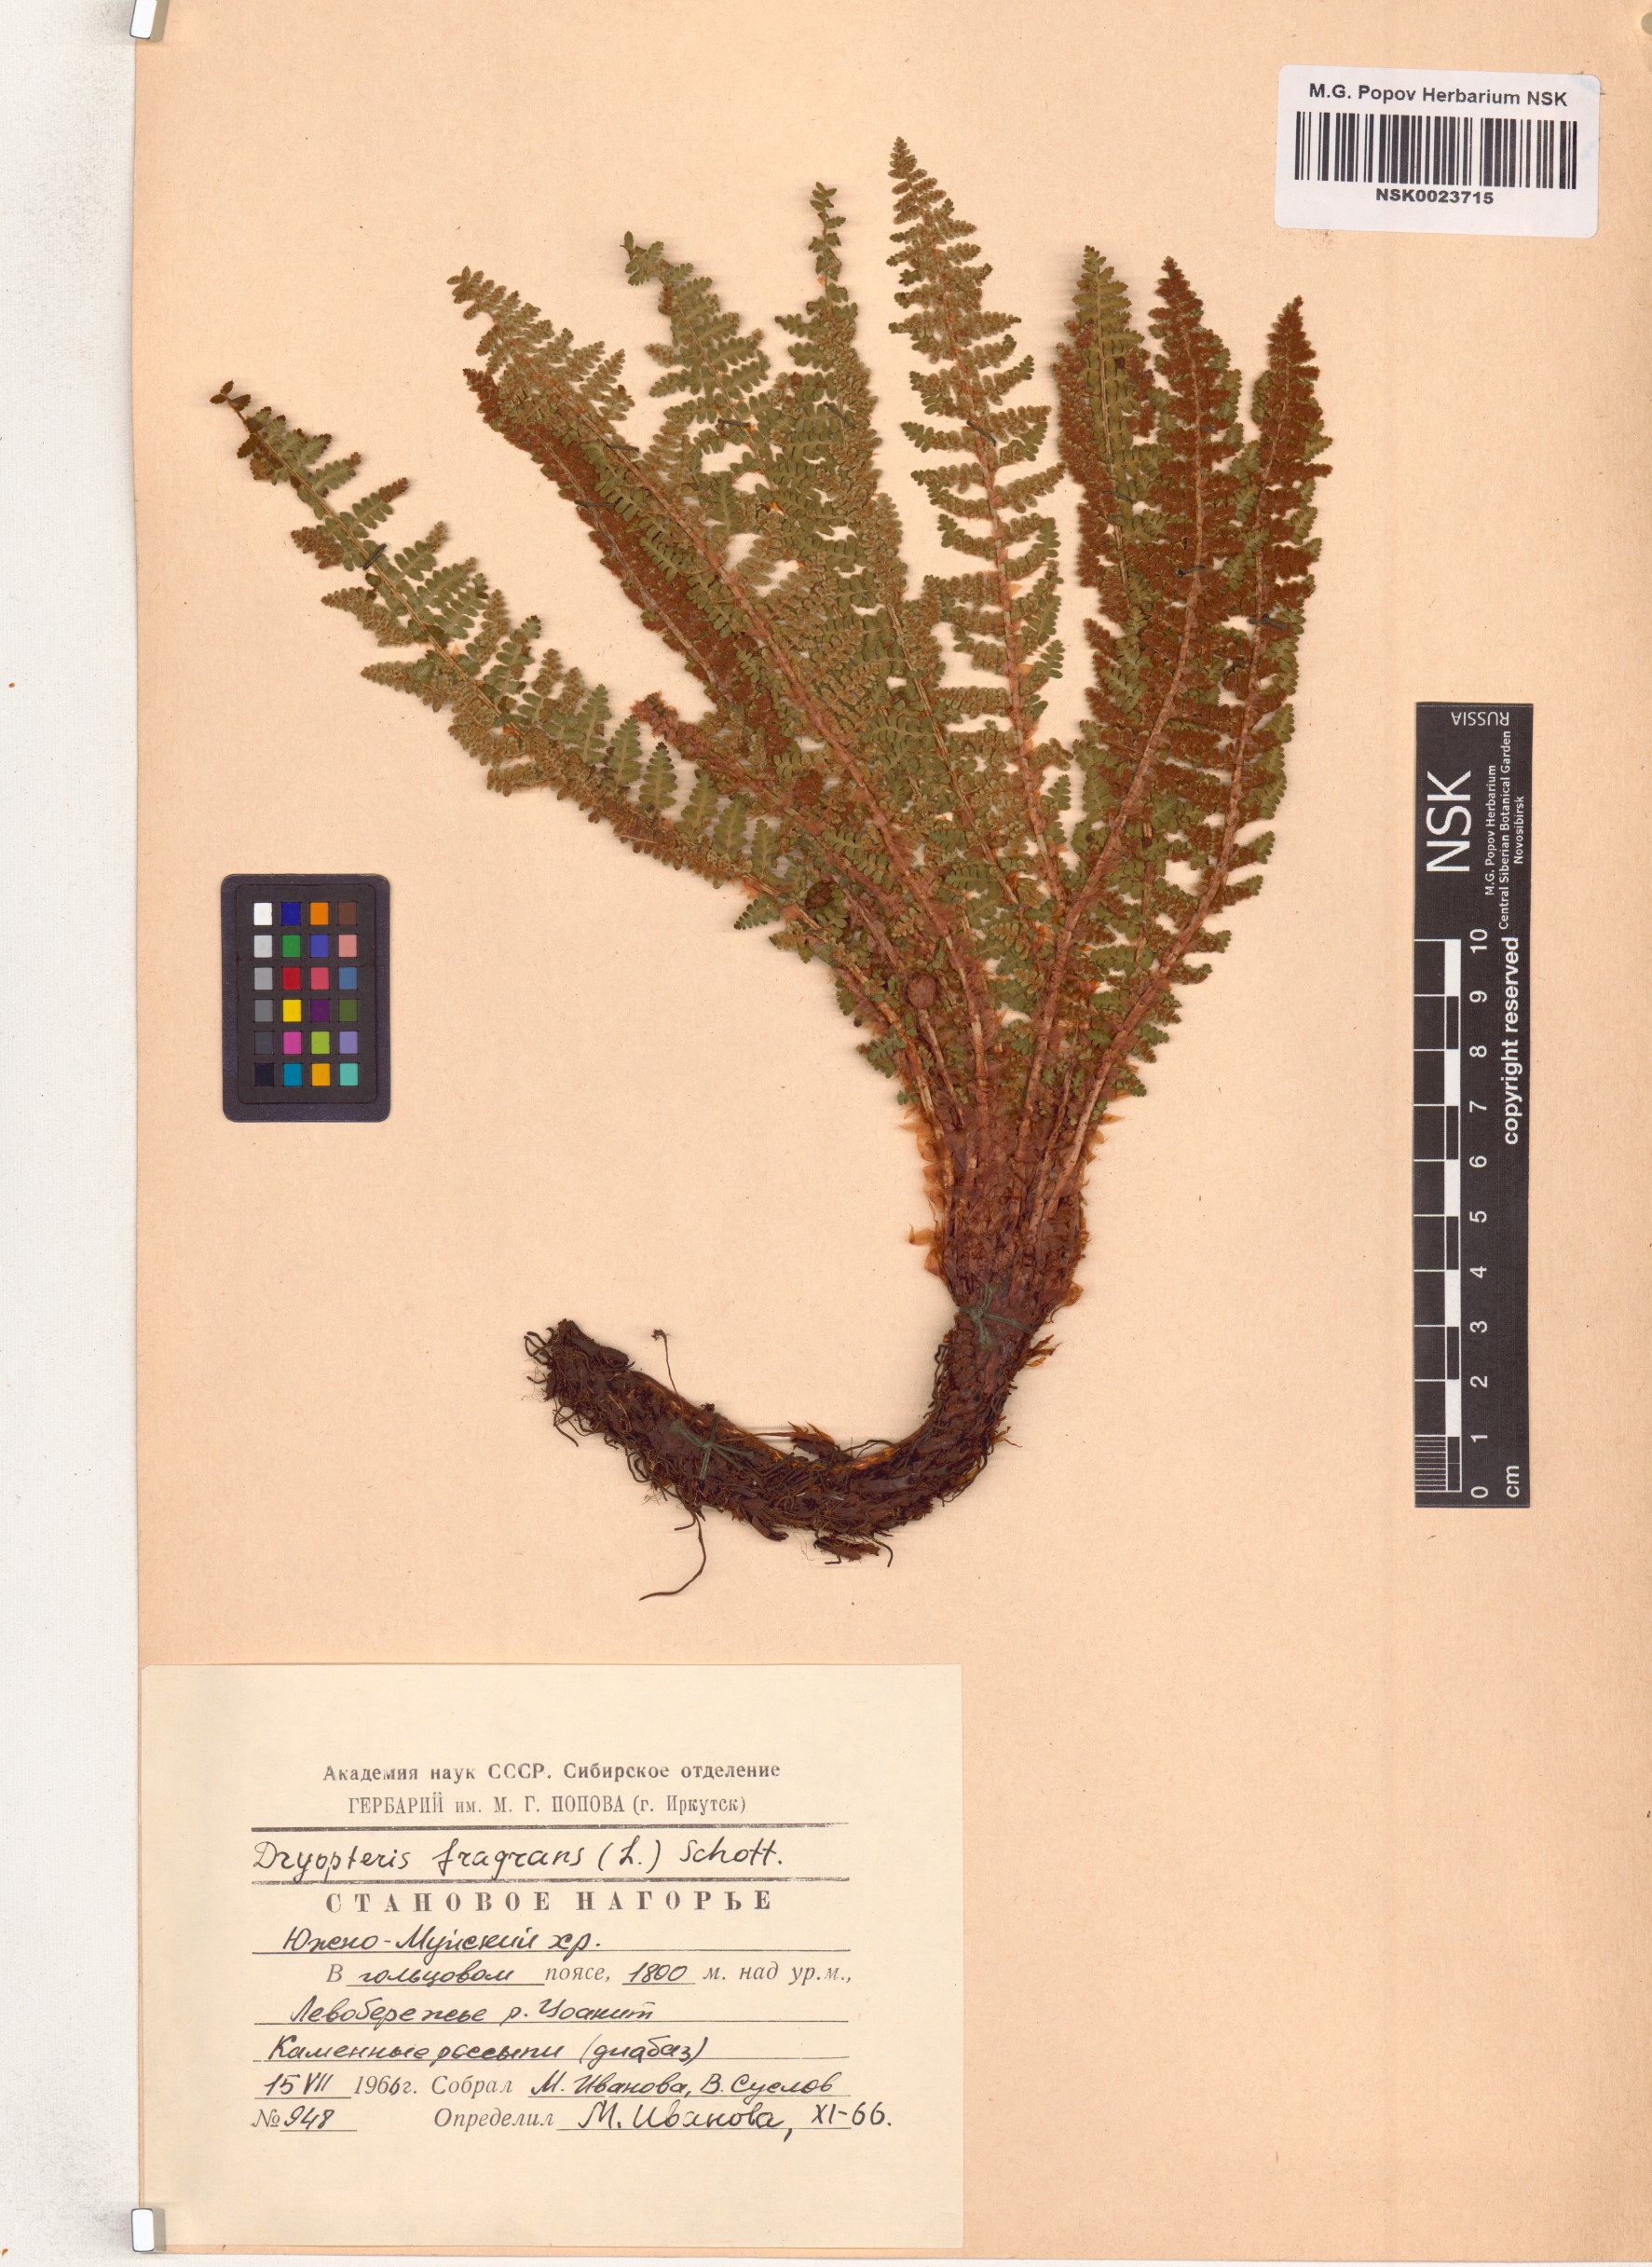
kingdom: Plantae
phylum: Tracheophyta
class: Polypodiopsida
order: Polypodiales
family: Dryopteridaceae
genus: Dryopteris
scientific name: Dryopteris fragrans
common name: Fragrant wood fern
